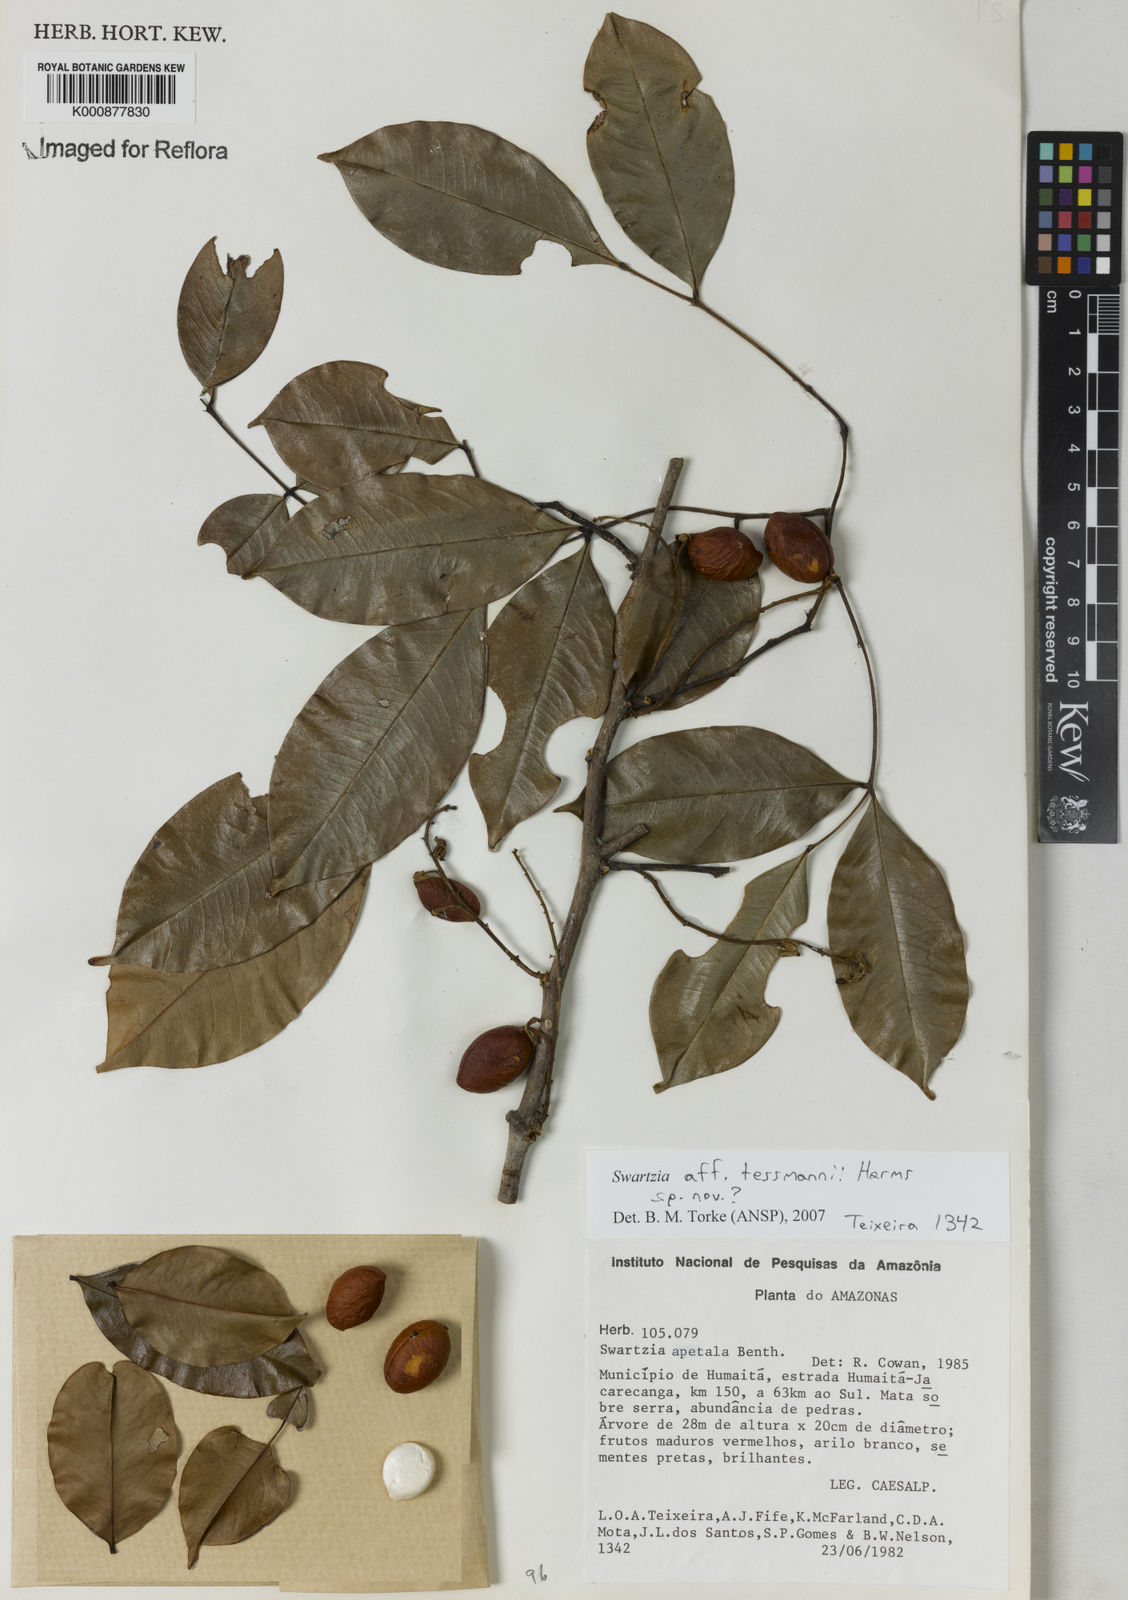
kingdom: Plantae
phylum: Tracheophyta
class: Magnoliopsida
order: Fabales
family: Fabaceae
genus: Swartzia
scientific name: Swartzia tessmannii
